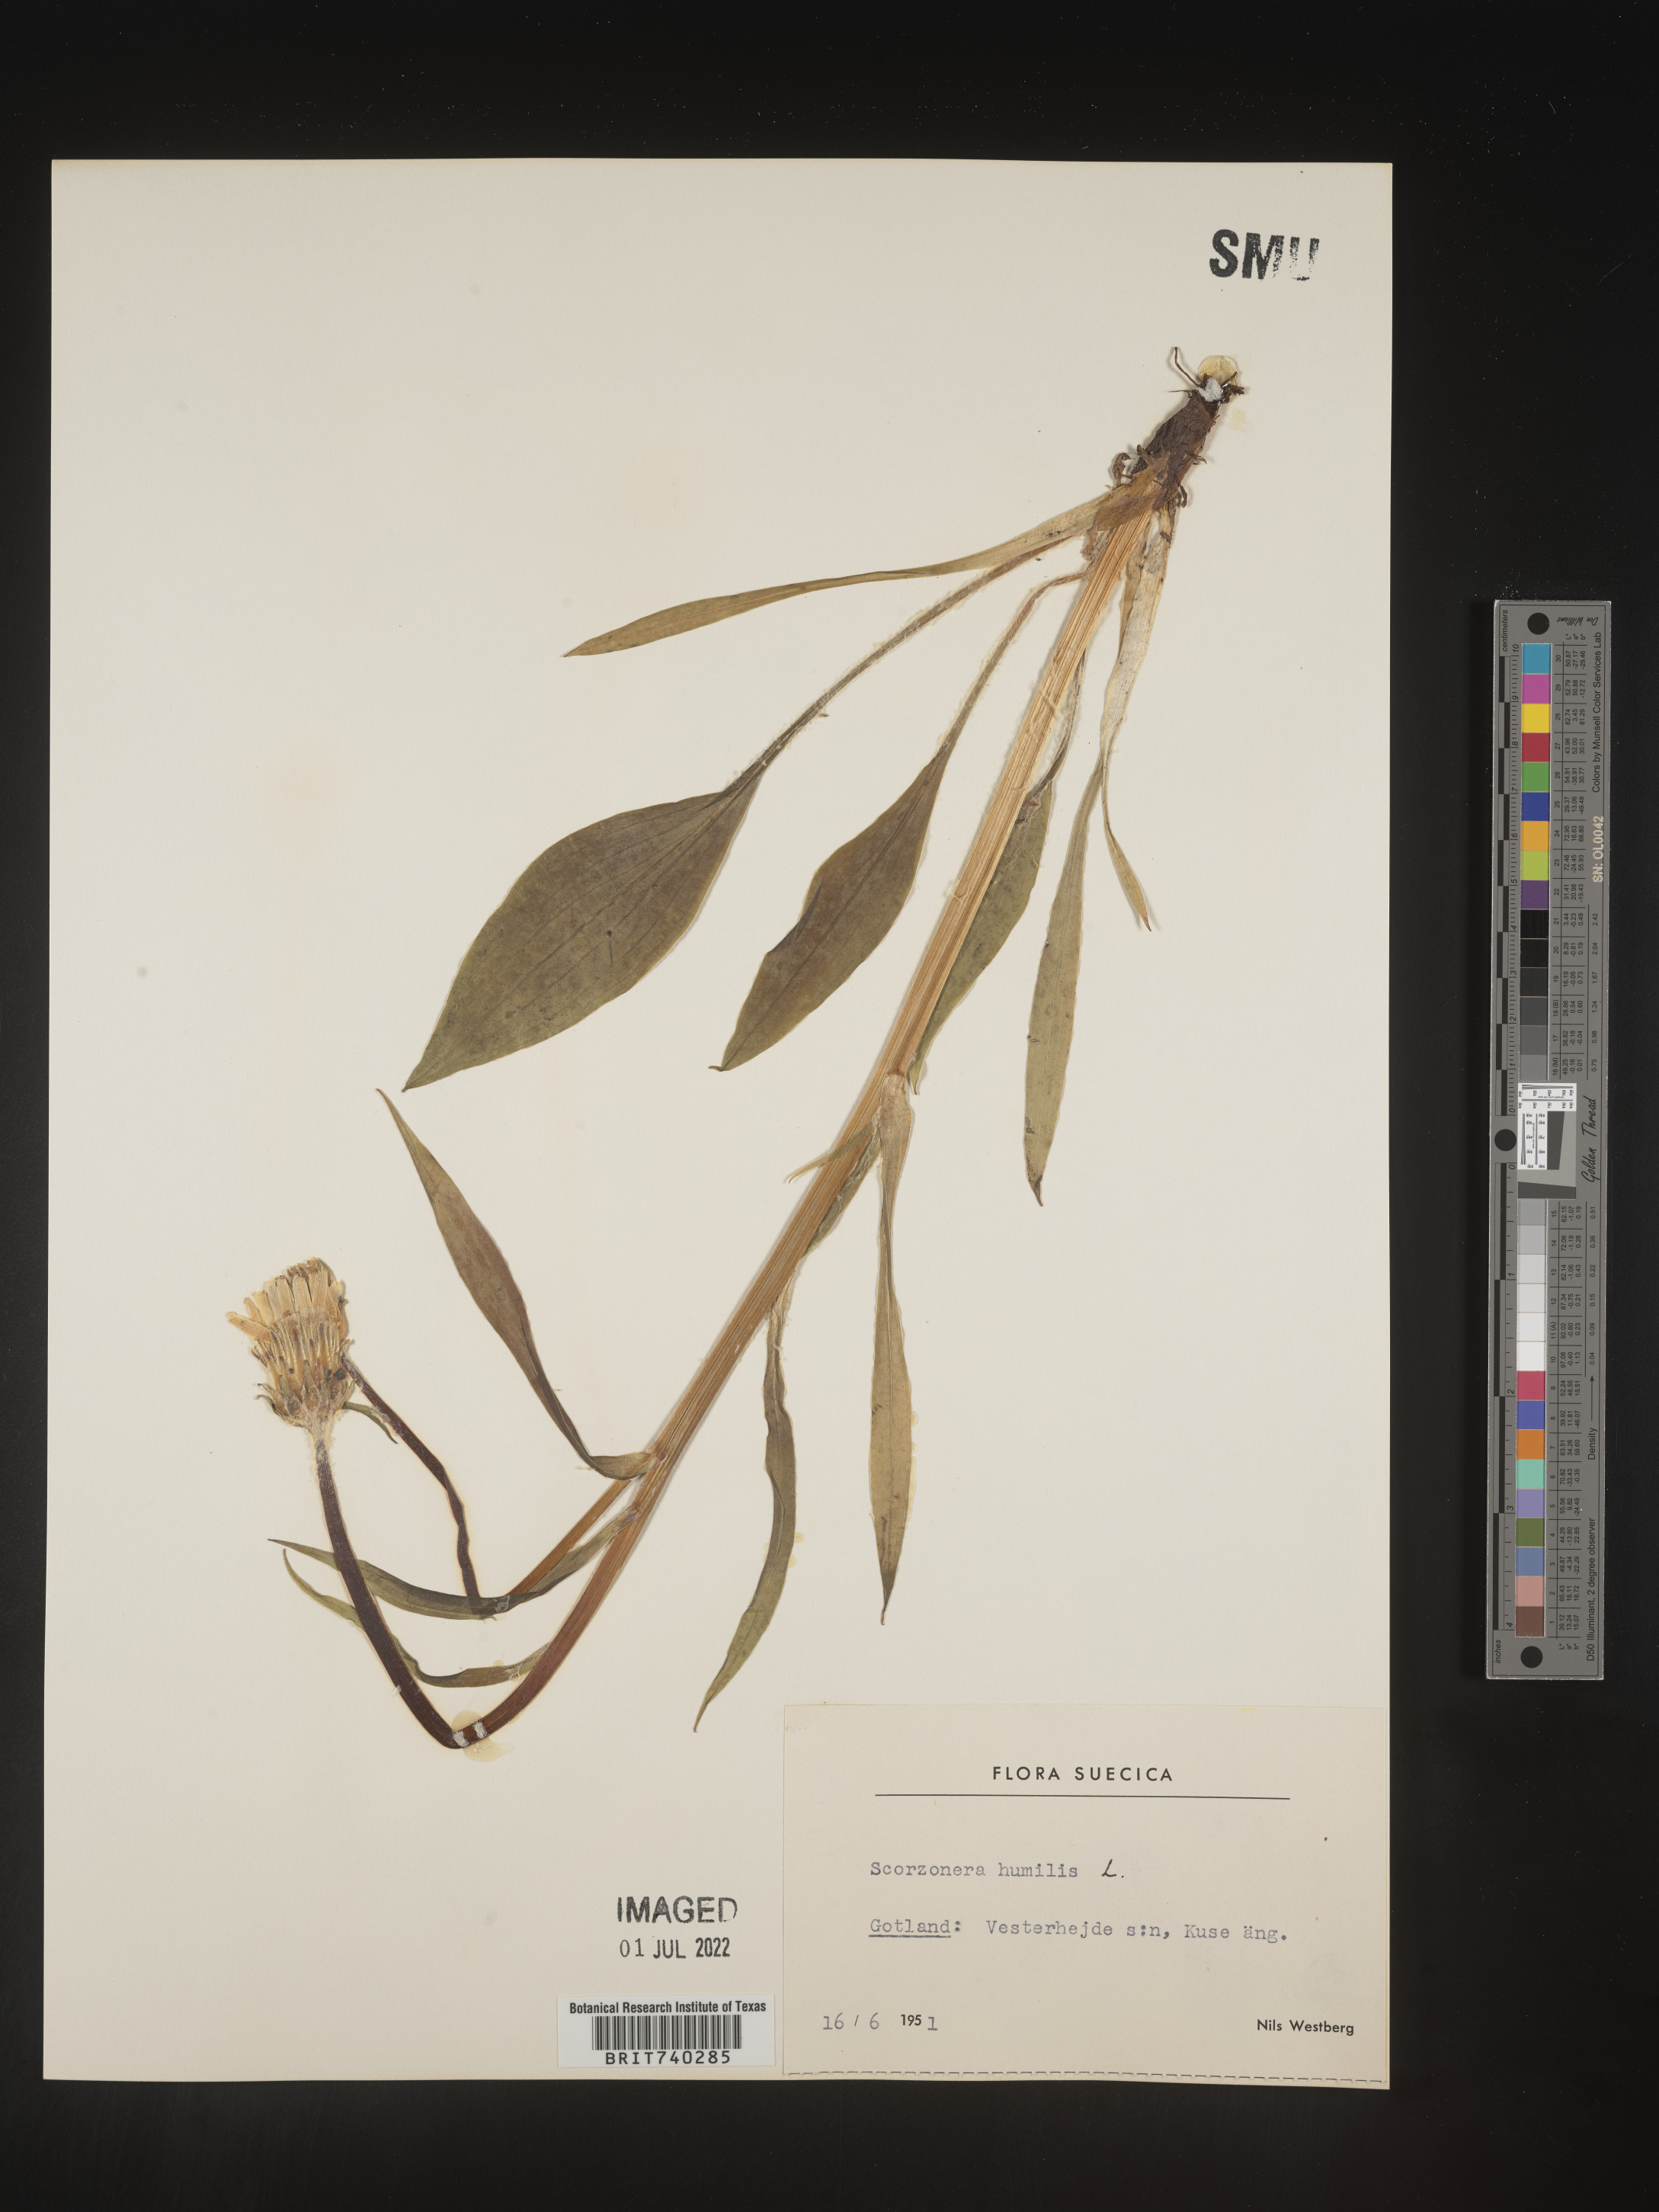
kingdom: Plantae
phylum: Tracheophyta
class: Magnoliopsida
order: Asterales
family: Asteraceae
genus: Scorzonera
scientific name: Scorzonera
